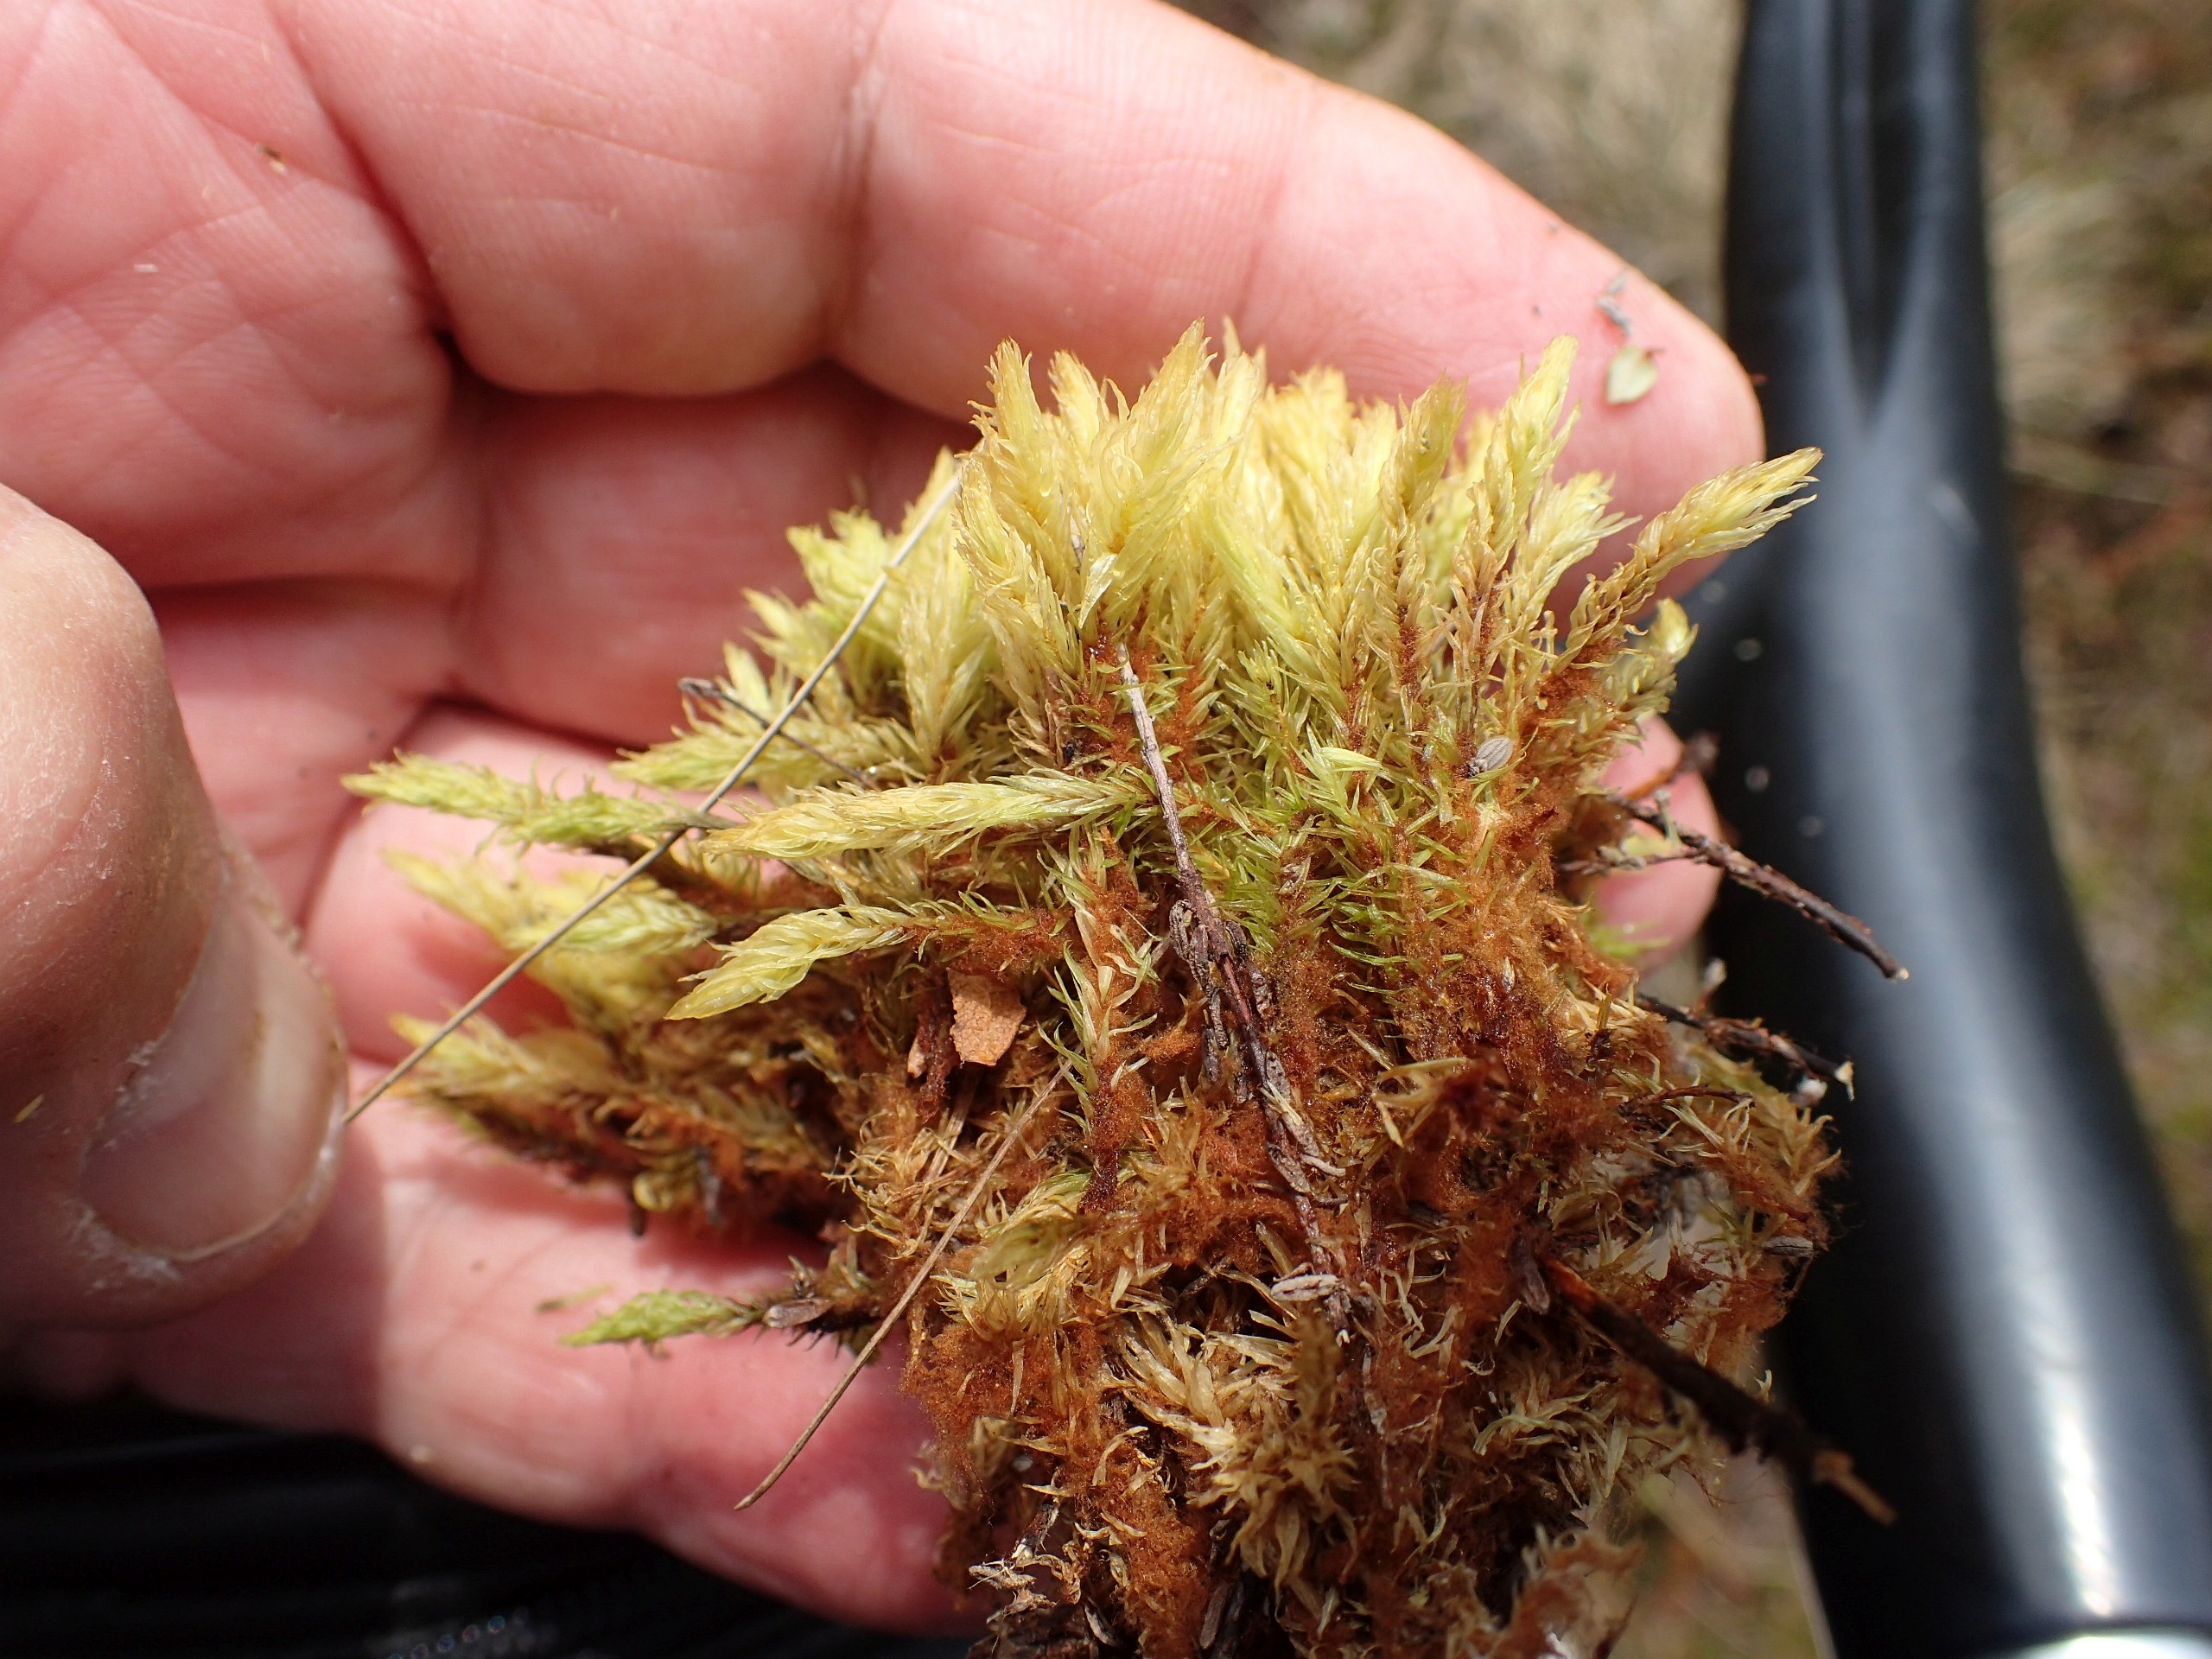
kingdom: Plantae
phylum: Bryophyta
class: Bryopsida
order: Aulacomniales
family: Aulacomniaceae
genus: Aulacomnium
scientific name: Aulacomnium palustre
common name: Almindelig filtmos
